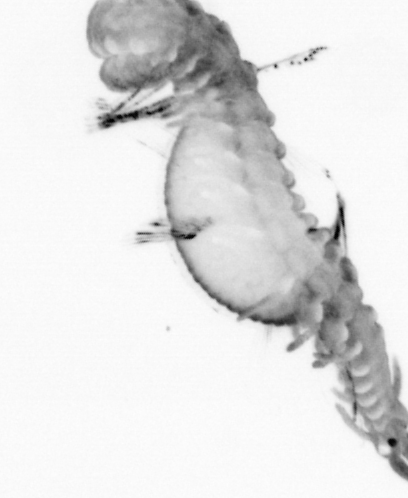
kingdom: Animalia
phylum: Annelida
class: Polychaeta
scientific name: Polychaeta
